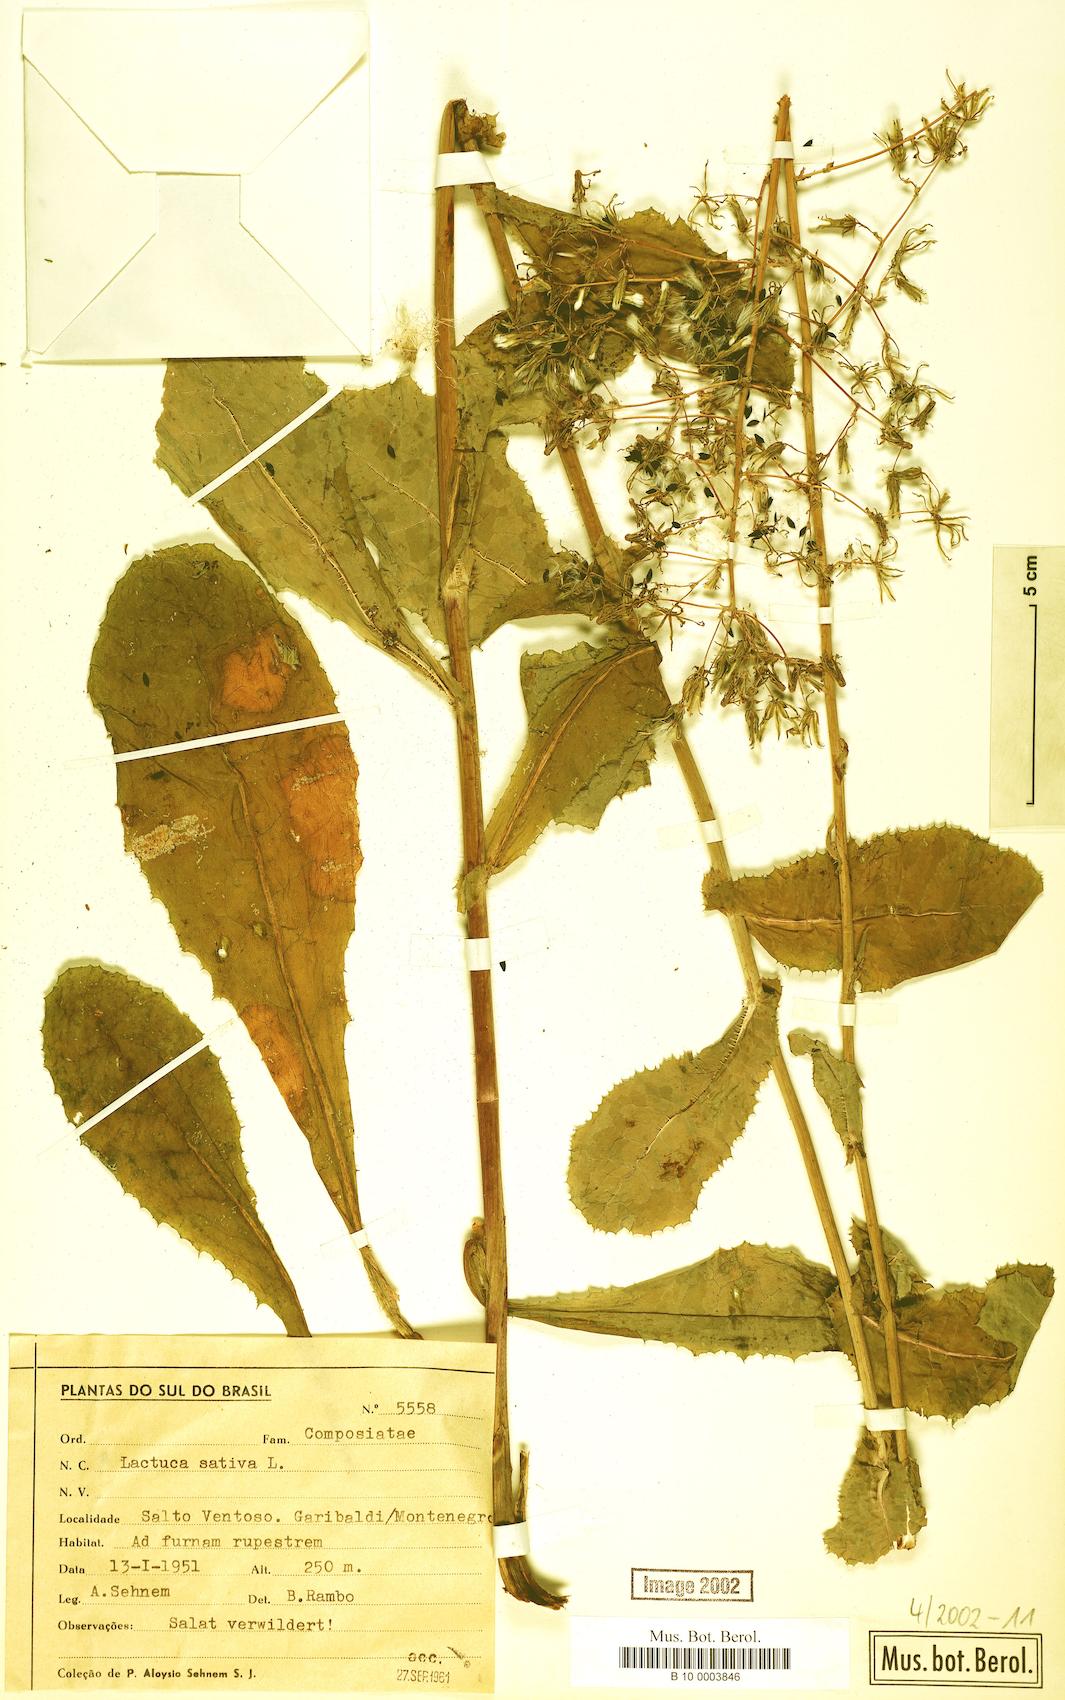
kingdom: Plantae
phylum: Tracheophyta
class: Magnoliopsida
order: Asterales
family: Asteraceae
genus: Lactuca
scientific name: Lactuca sativa
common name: Garden lettuce
